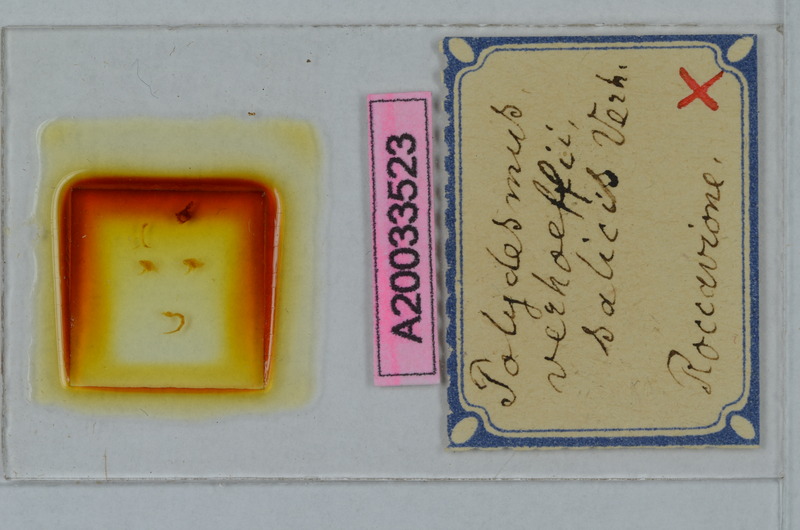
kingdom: Animalia
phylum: Arthropoda
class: Diplopoda
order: Polydesmida
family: Polydesmidae
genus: Polydesmus
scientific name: Polydesmus angustus
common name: Flat millipede
